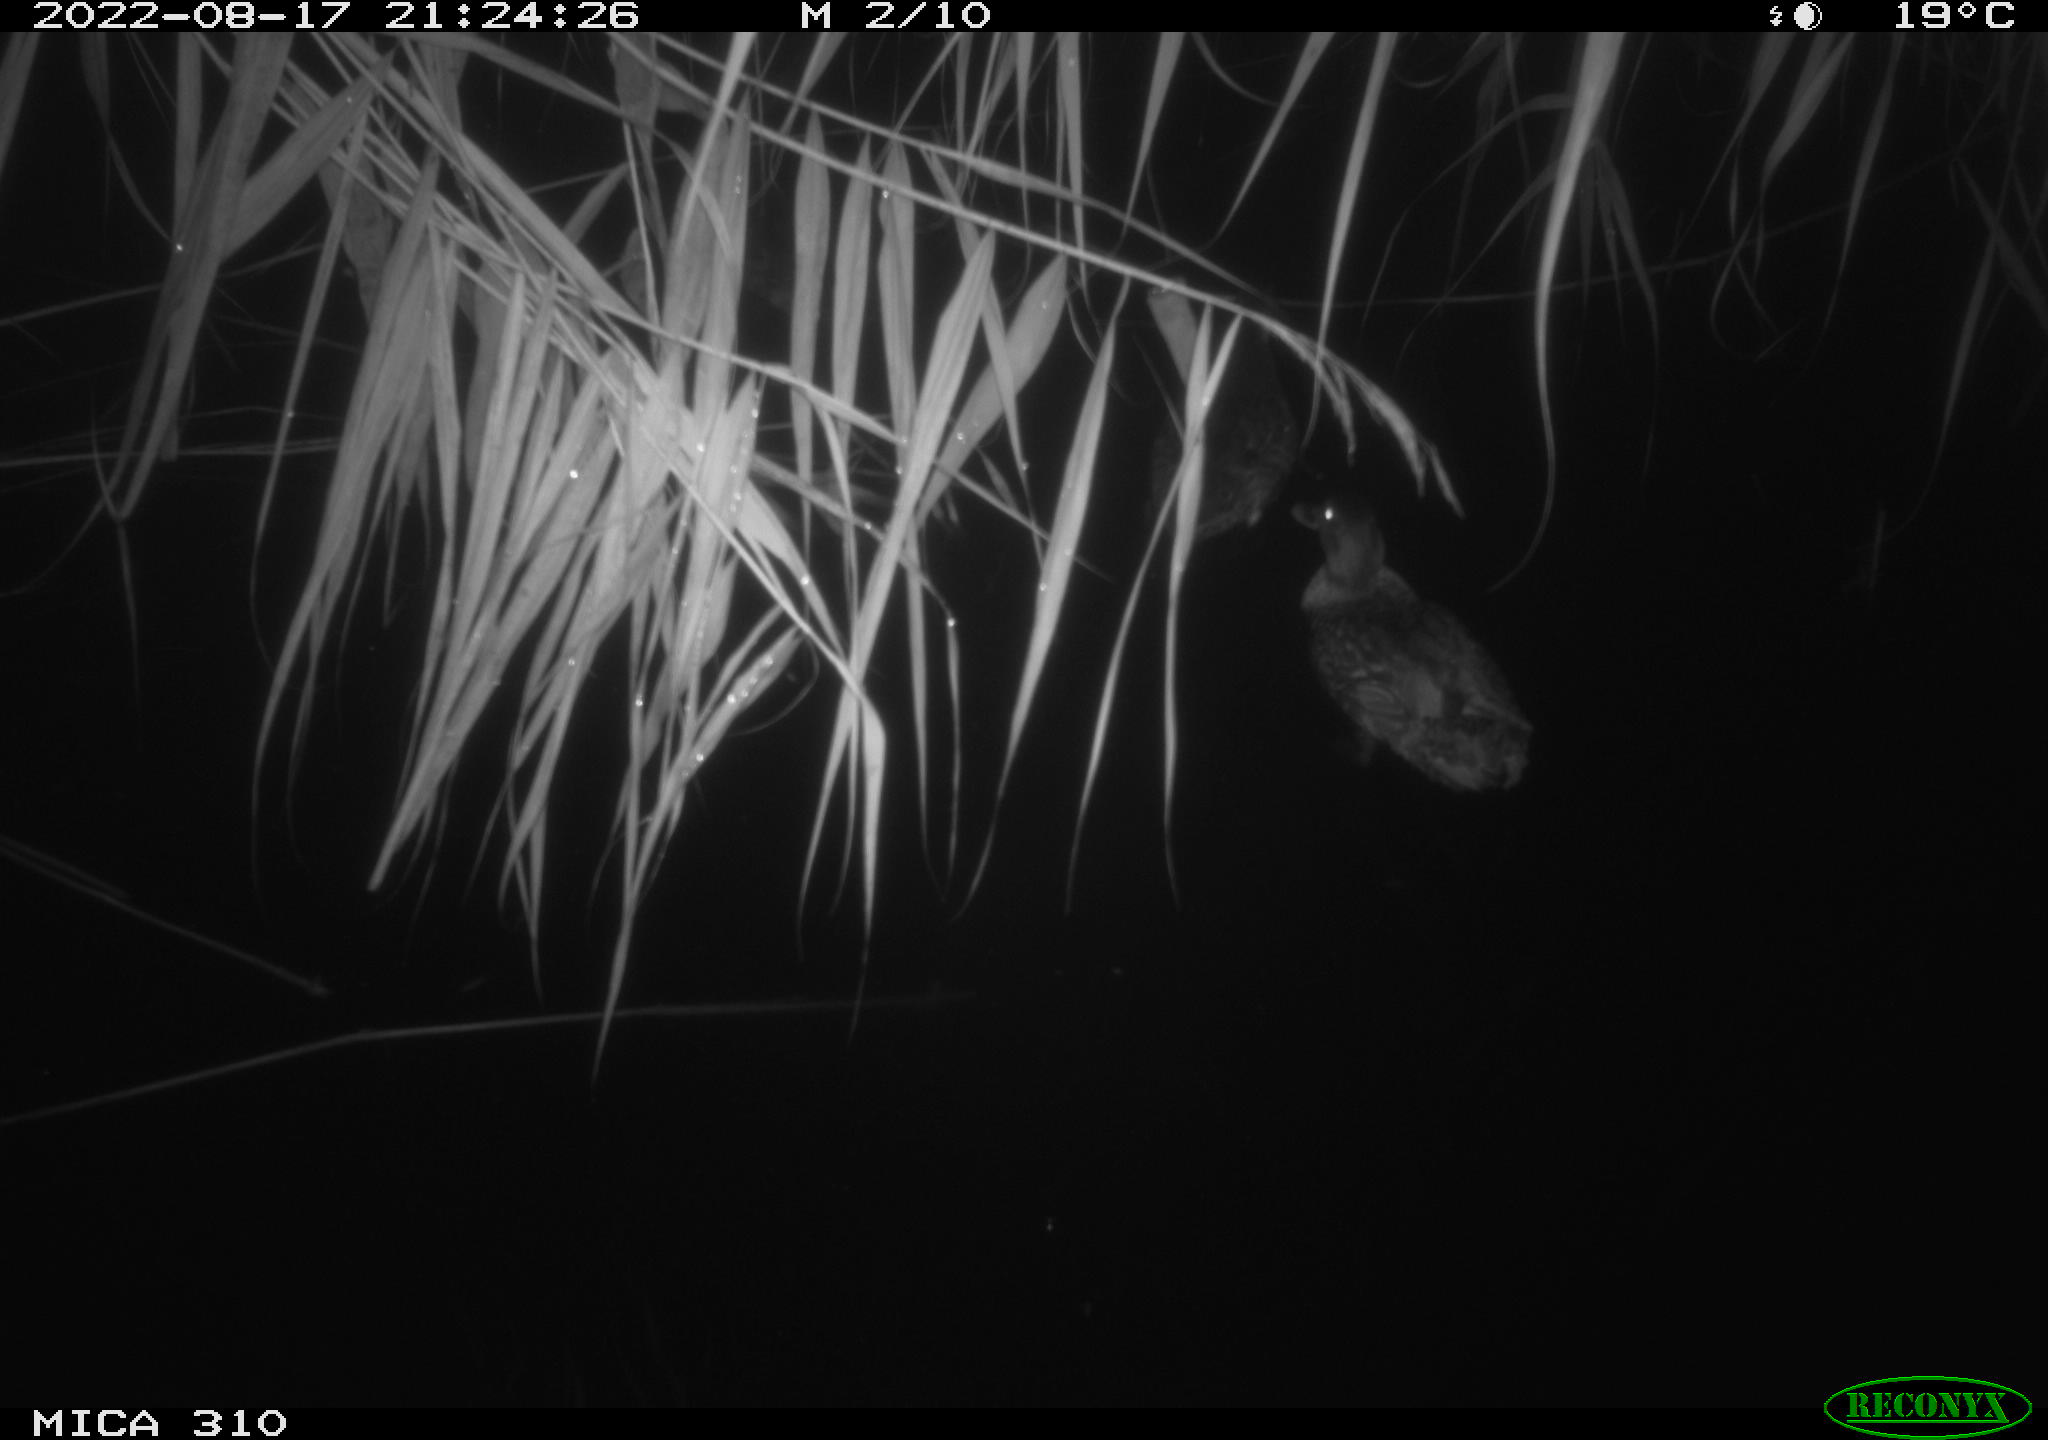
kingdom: Animalia
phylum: Chordata
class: Aves
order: Anseriformes
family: Anatidae
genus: Anas
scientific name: Anas platyrhynchos
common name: Mallard
